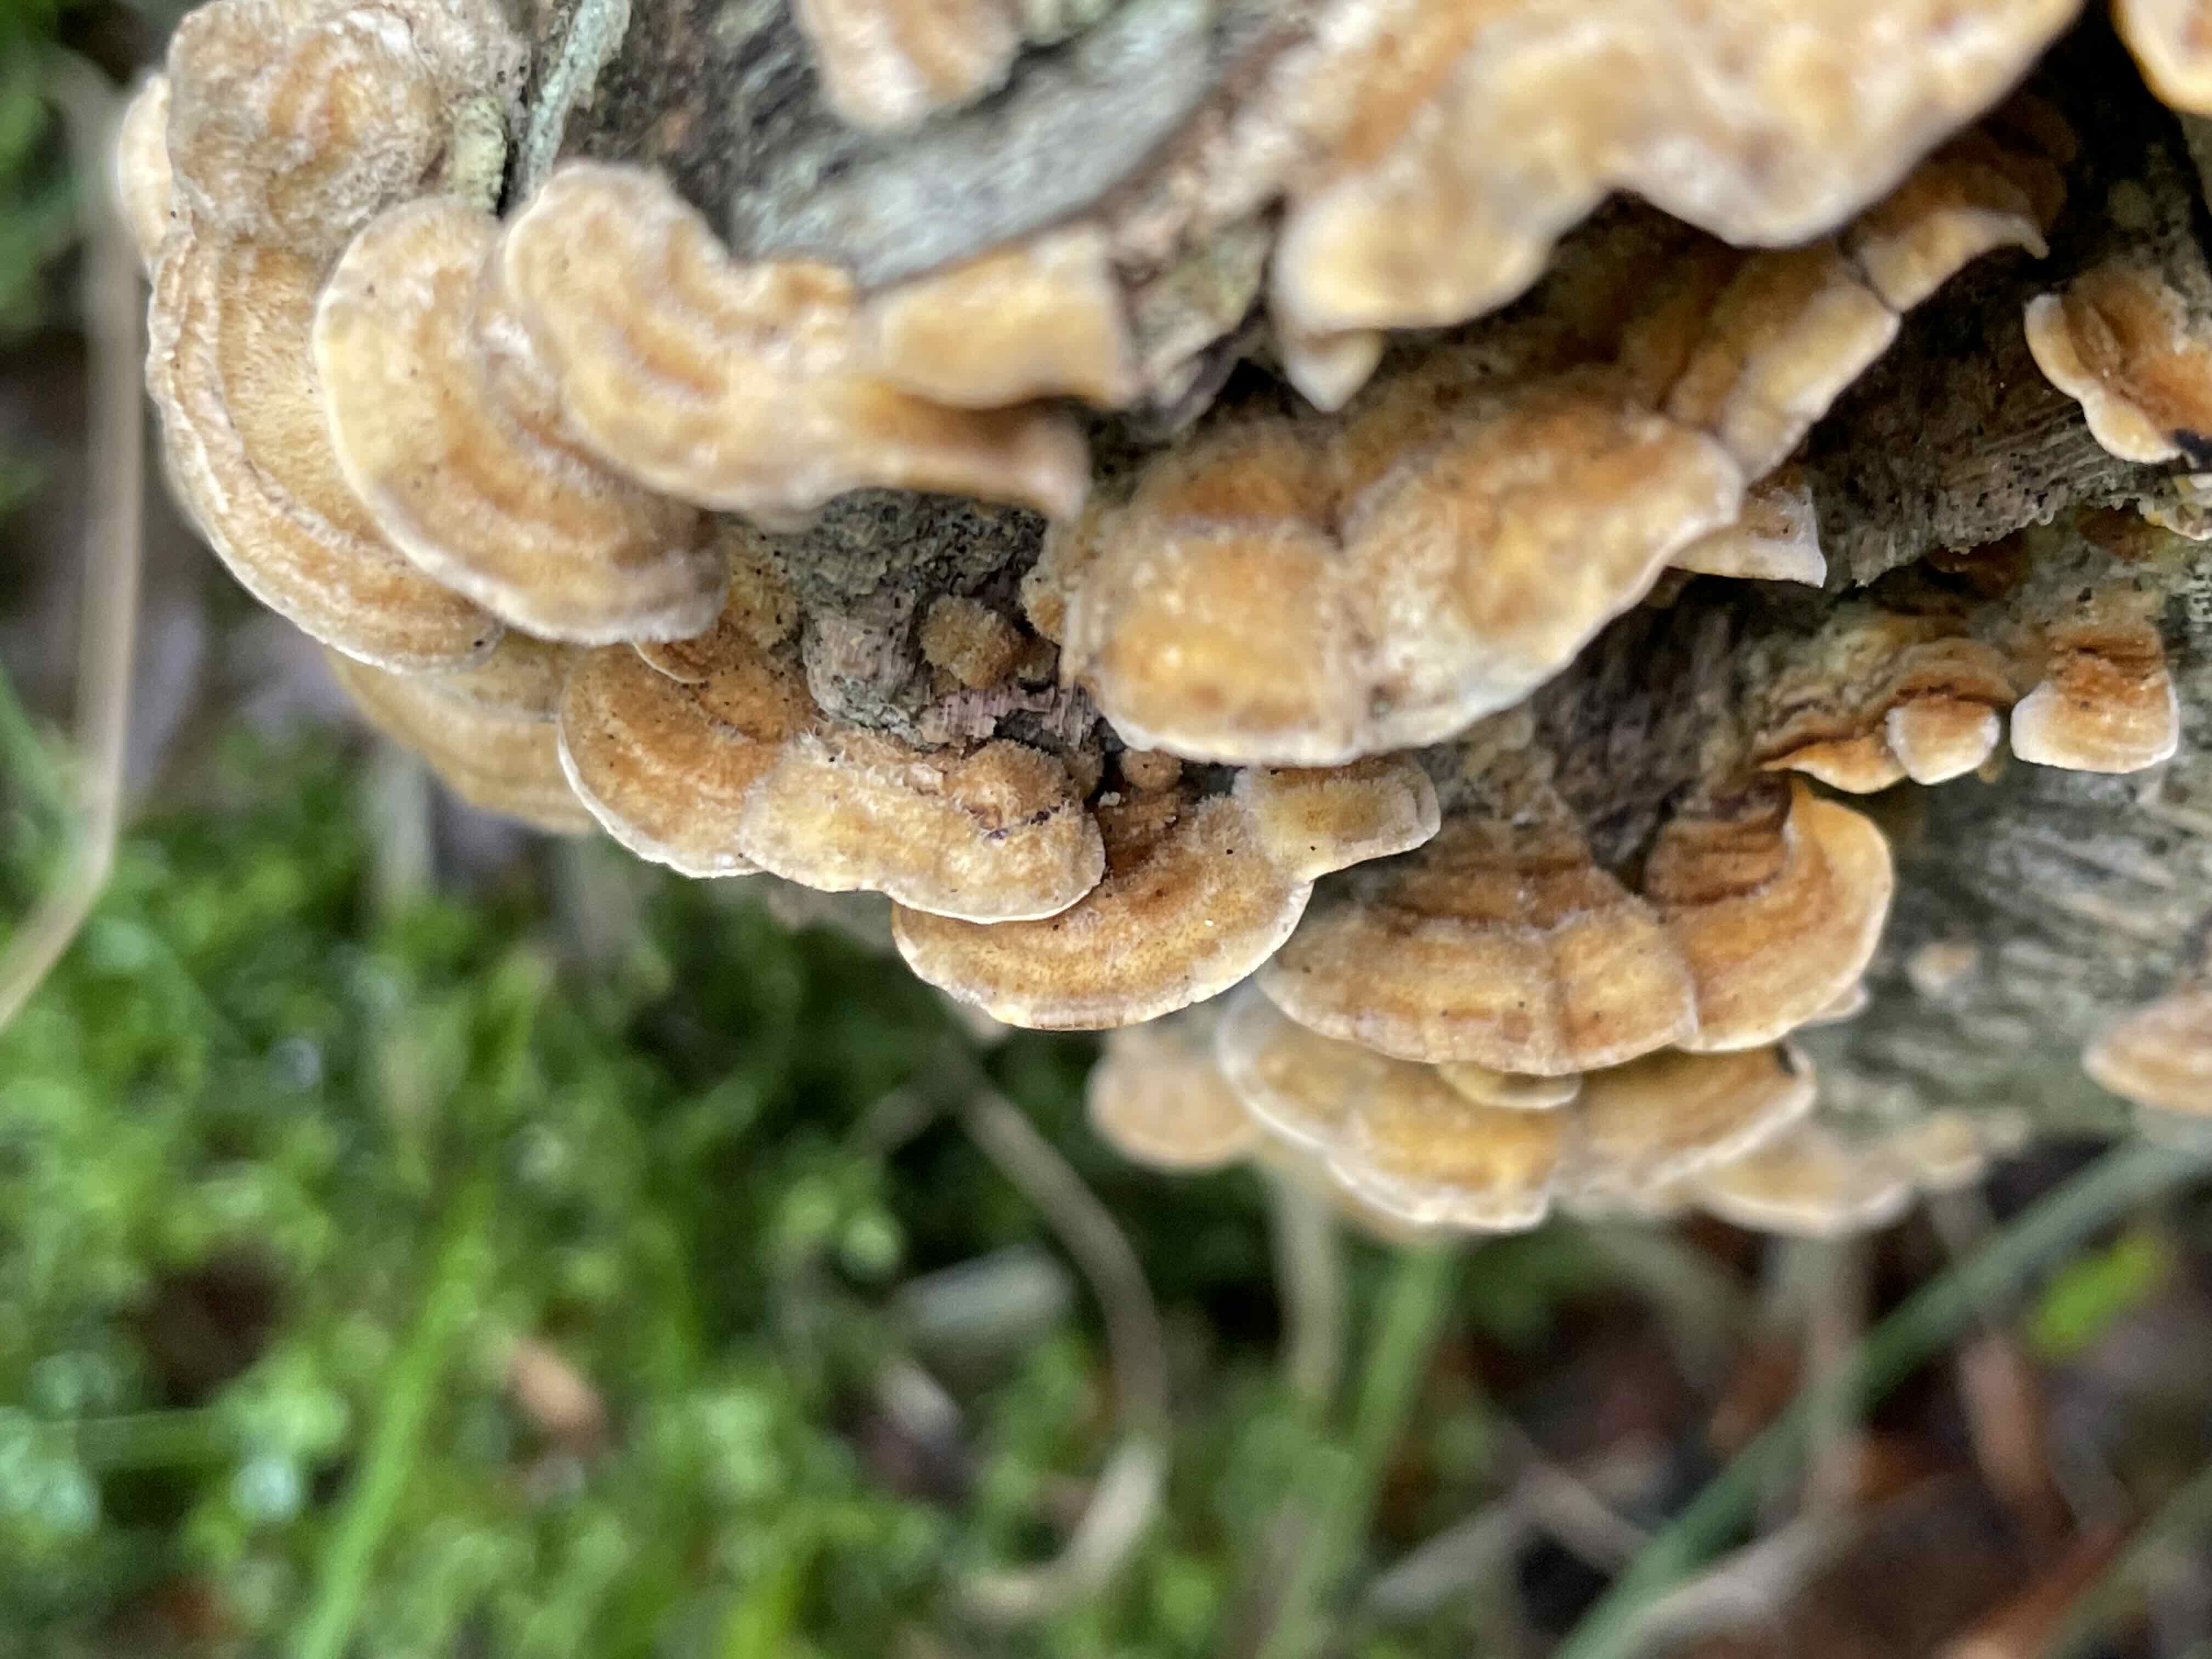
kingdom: Fungi
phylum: Basidiomycota
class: Agaricomycetes
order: Russulales
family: Stereaceae
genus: Stereum
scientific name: Stereum hirsutum
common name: håret lædersvamp
